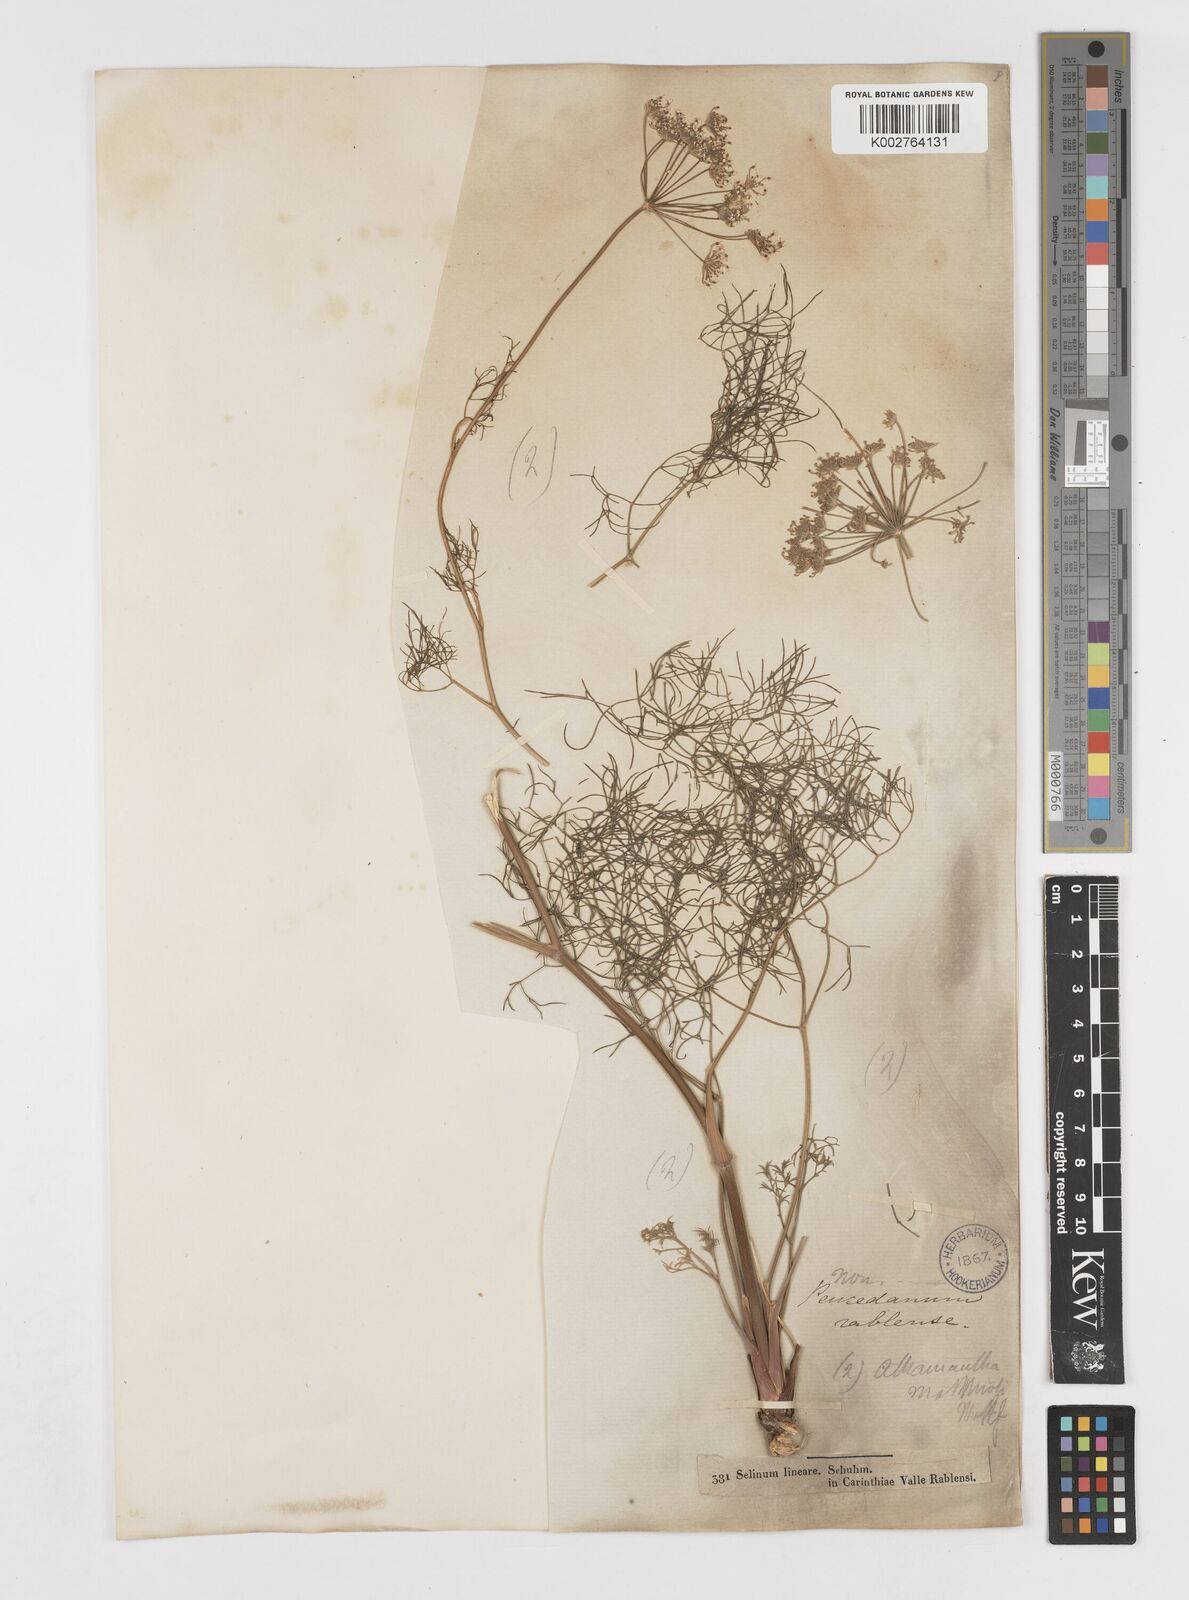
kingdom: Plantae
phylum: Tracheophyta
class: Magnoliopsida
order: Apiales
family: Apiaceae
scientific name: Apiaceae
